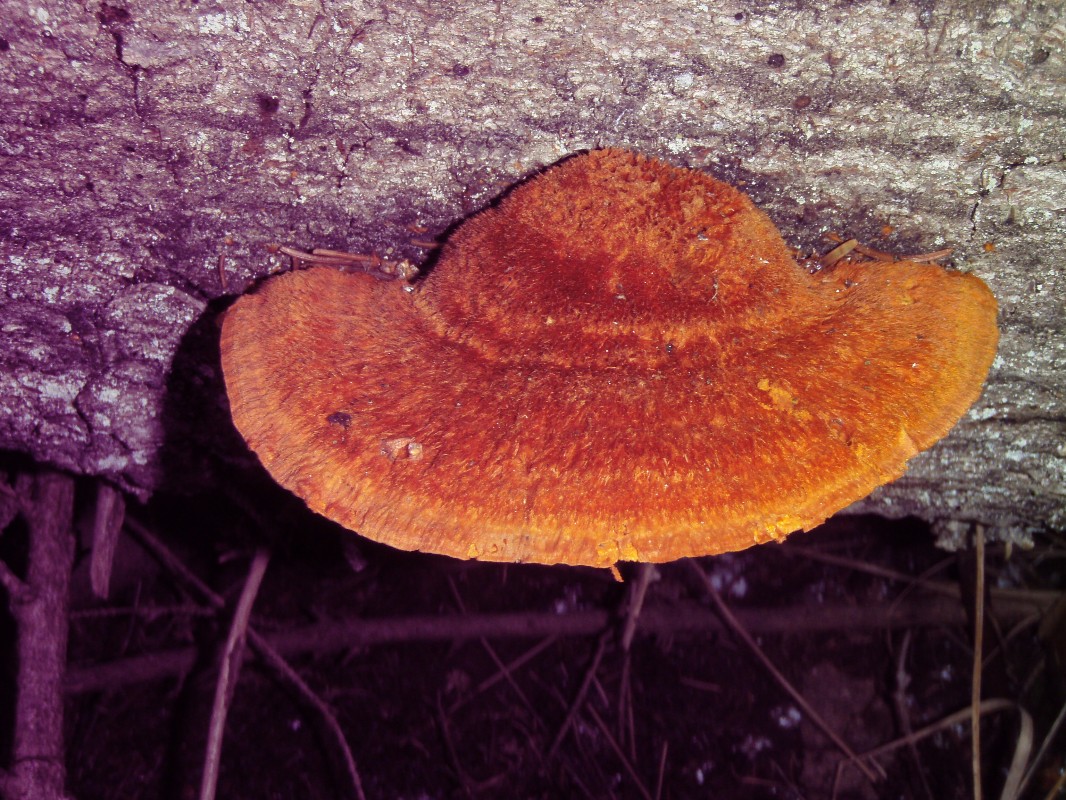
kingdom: Fungi
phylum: Basidiomycota
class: Agaricomycetes
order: Polyporales
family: Pycnoporellaceae
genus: Pycnoporellus
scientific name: Pycnoporellus fulgens
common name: flammeporesvamp
